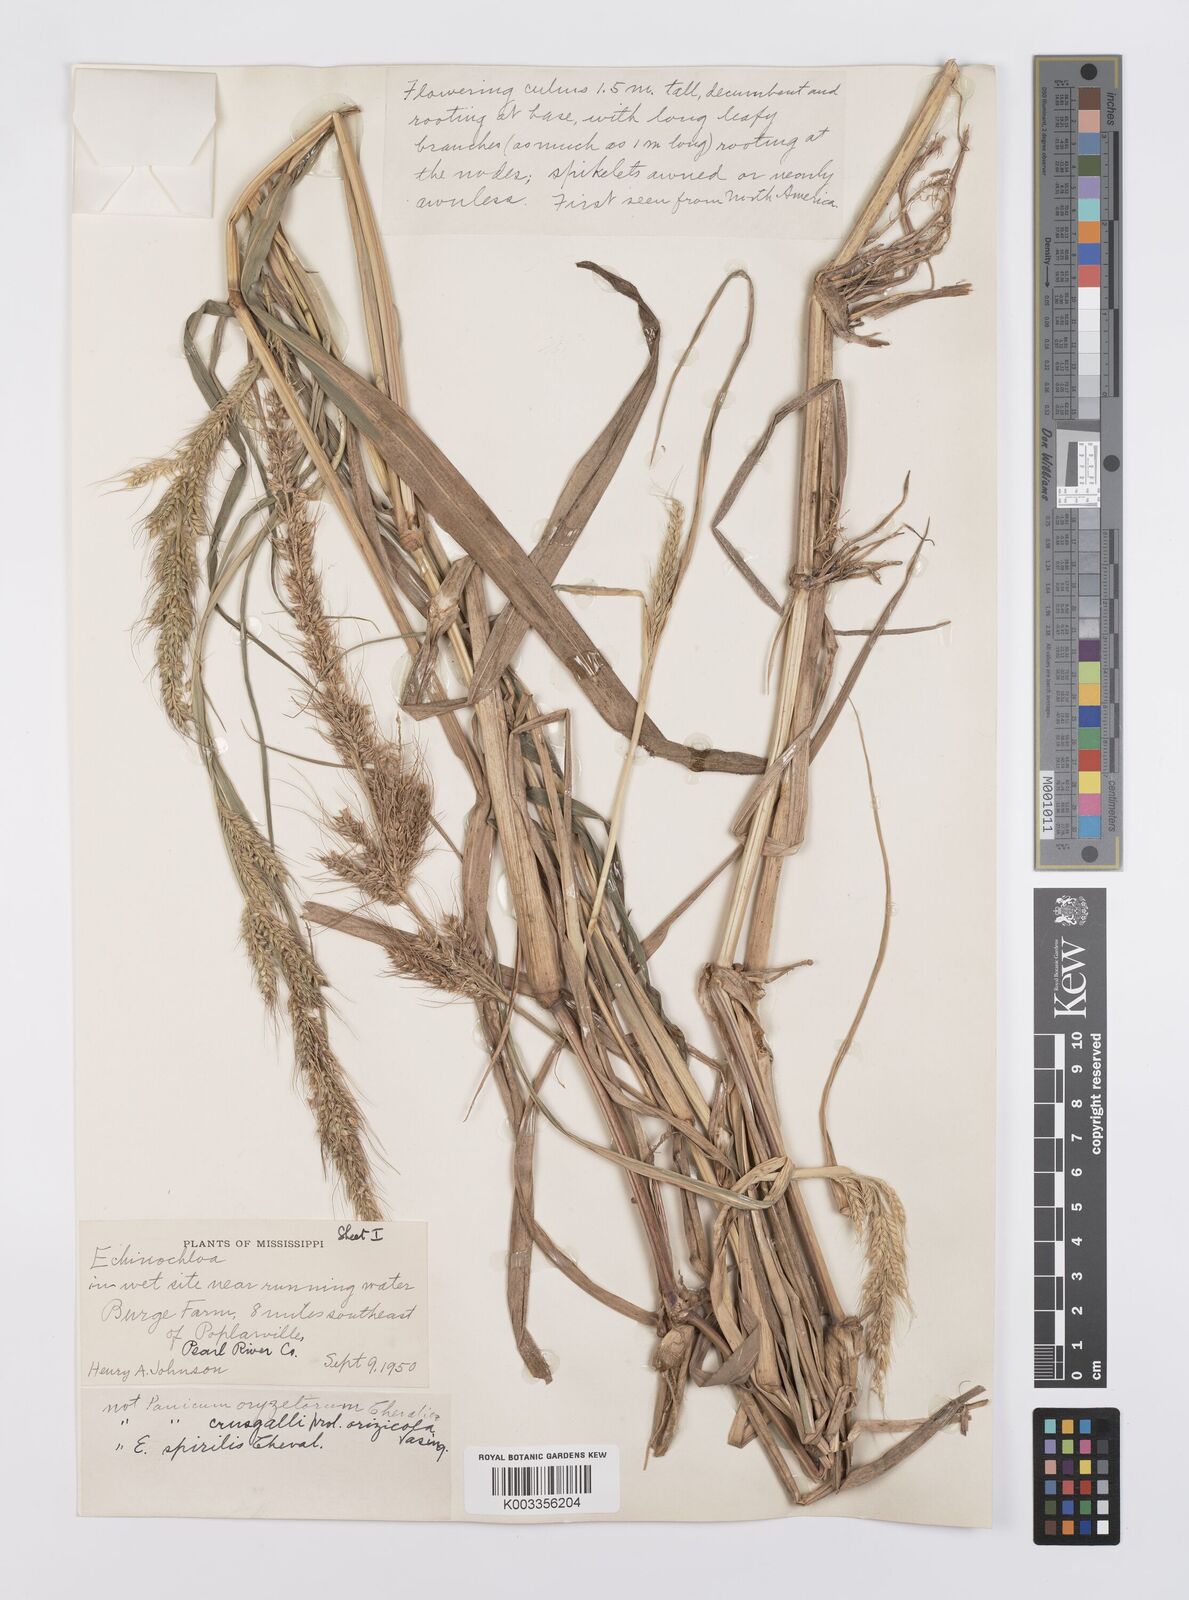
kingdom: Plantae
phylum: Tracheophyta
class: Liliopsida
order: Poales
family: Poaceae
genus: Echinochloa
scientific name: Echinochloa crus-galli
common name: Cockspur
